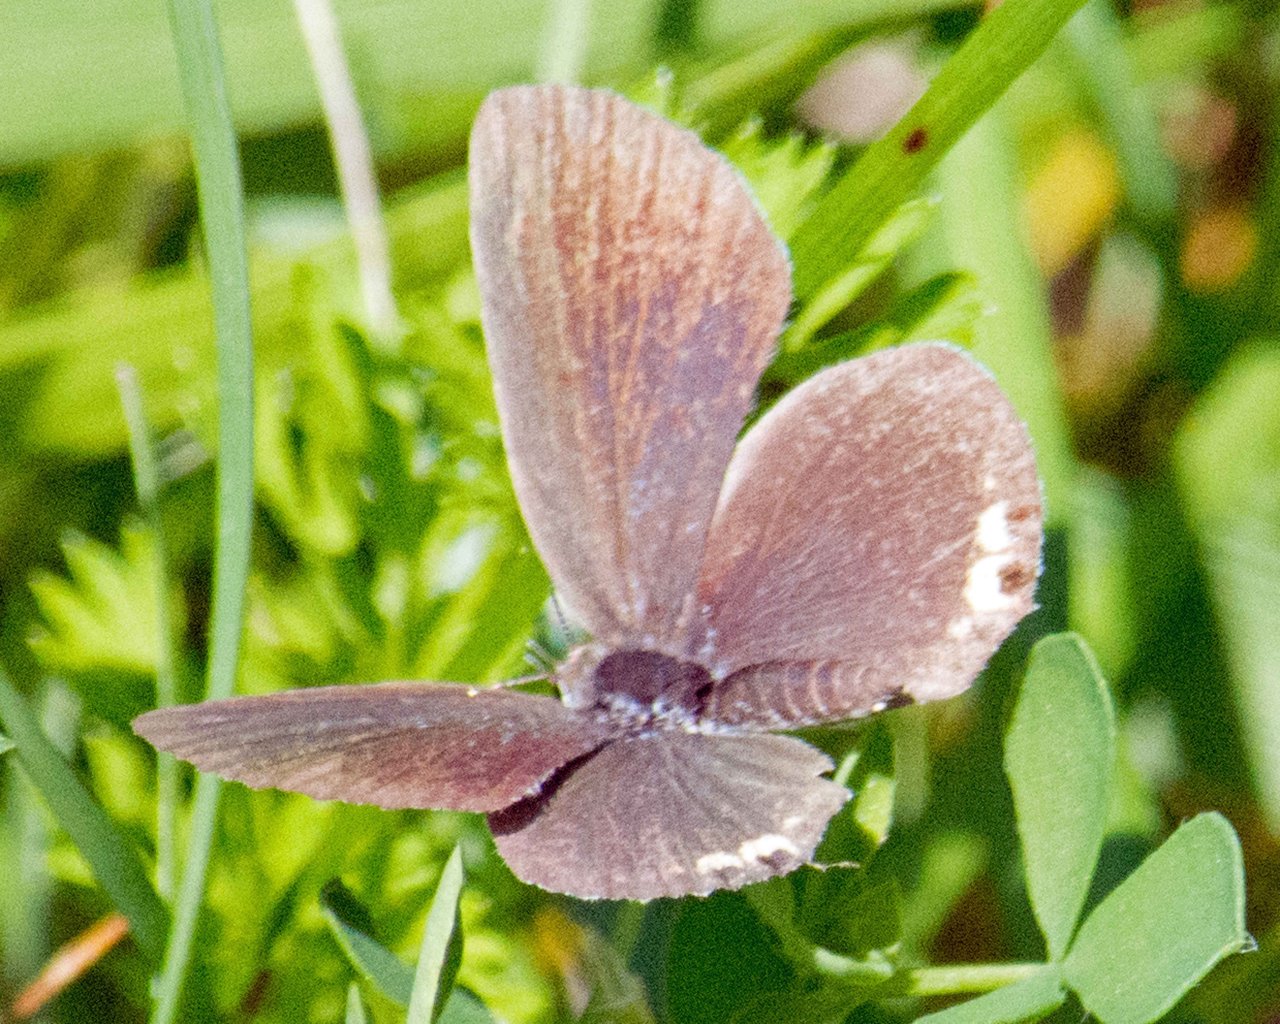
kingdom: Animalia
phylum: Arthropoda
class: Insecta
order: Lepidoptera
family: Lycaenidae
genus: Elkalyce
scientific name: Elkalyce comyntas
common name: Eastern Tailed-Blue
